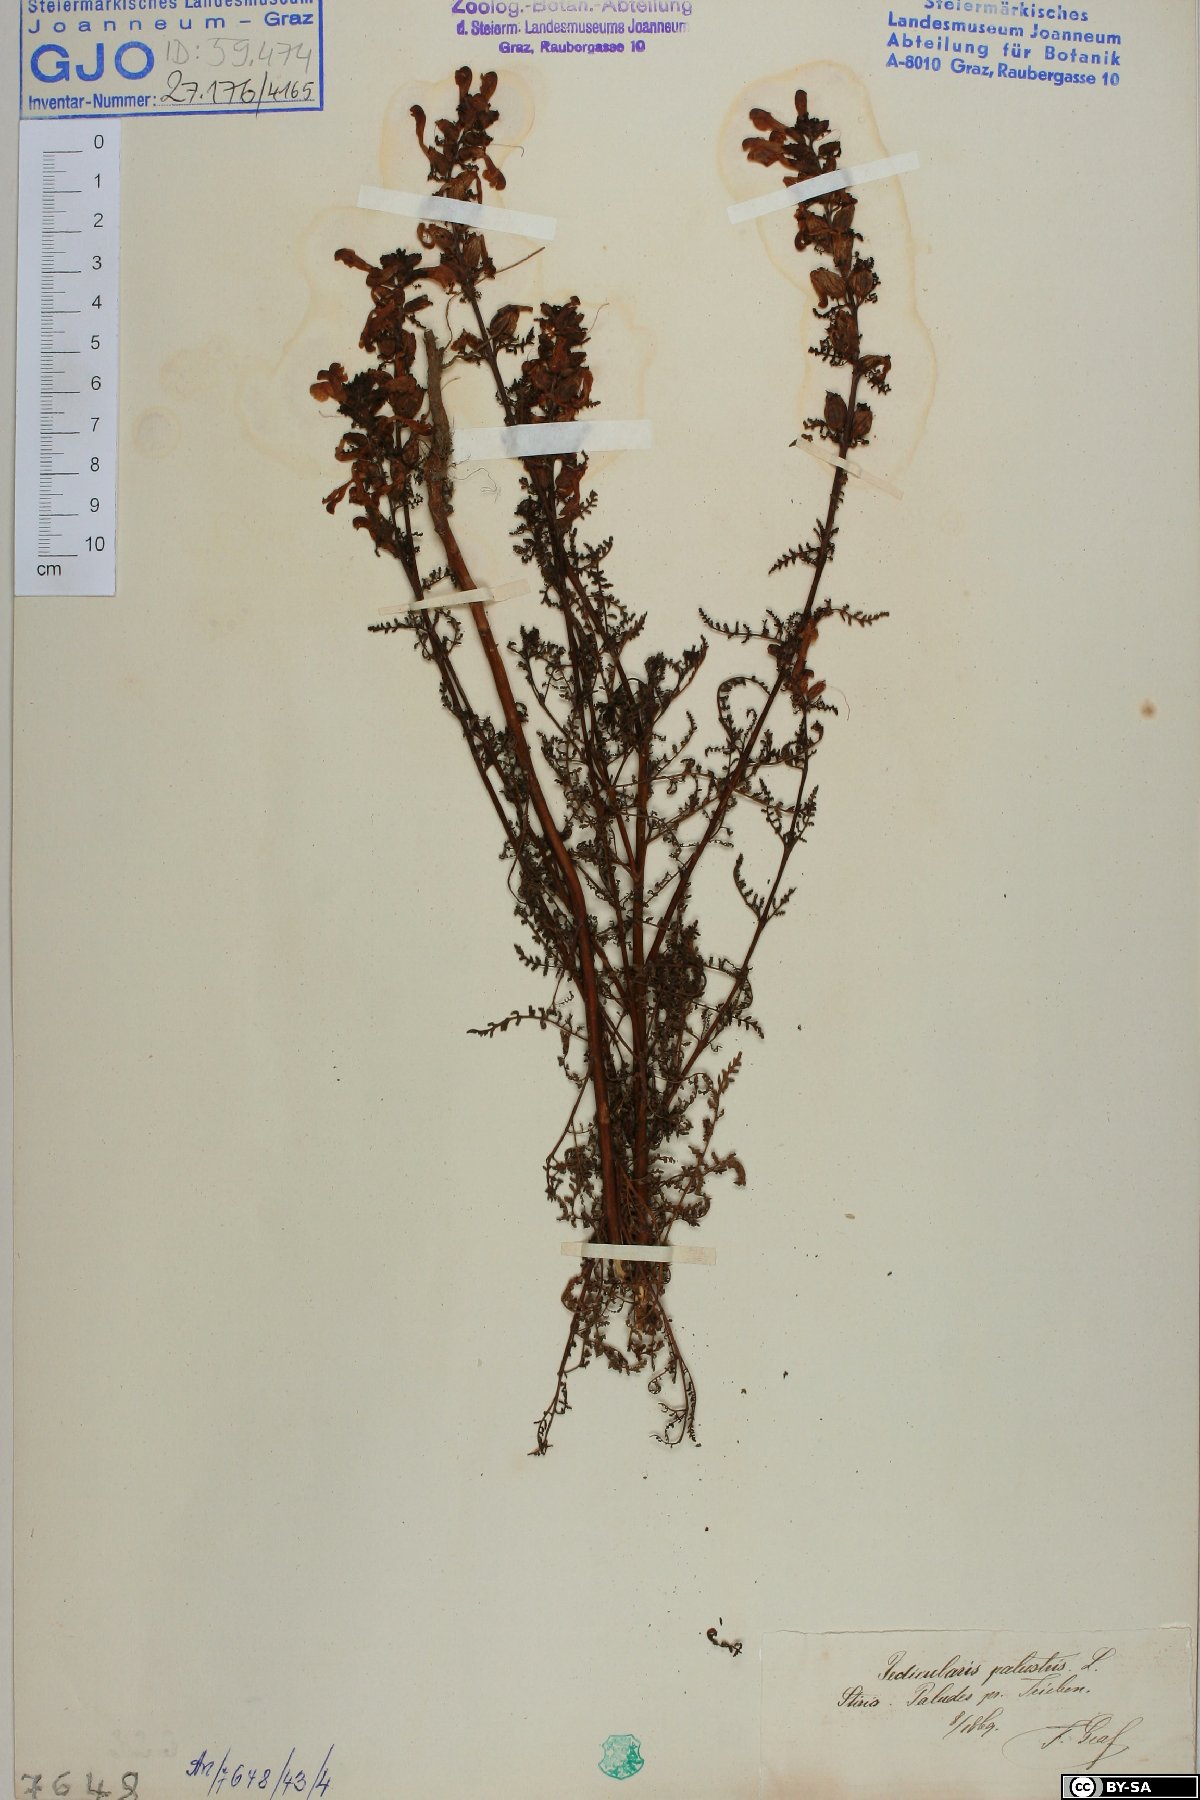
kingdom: Plantae
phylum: Tracheophyta
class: Magnoliopsida
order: Lamiales
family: Orobanchaceae
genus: Pedicularis
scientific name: Pedicularis palustris
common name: Marsh lousewort
